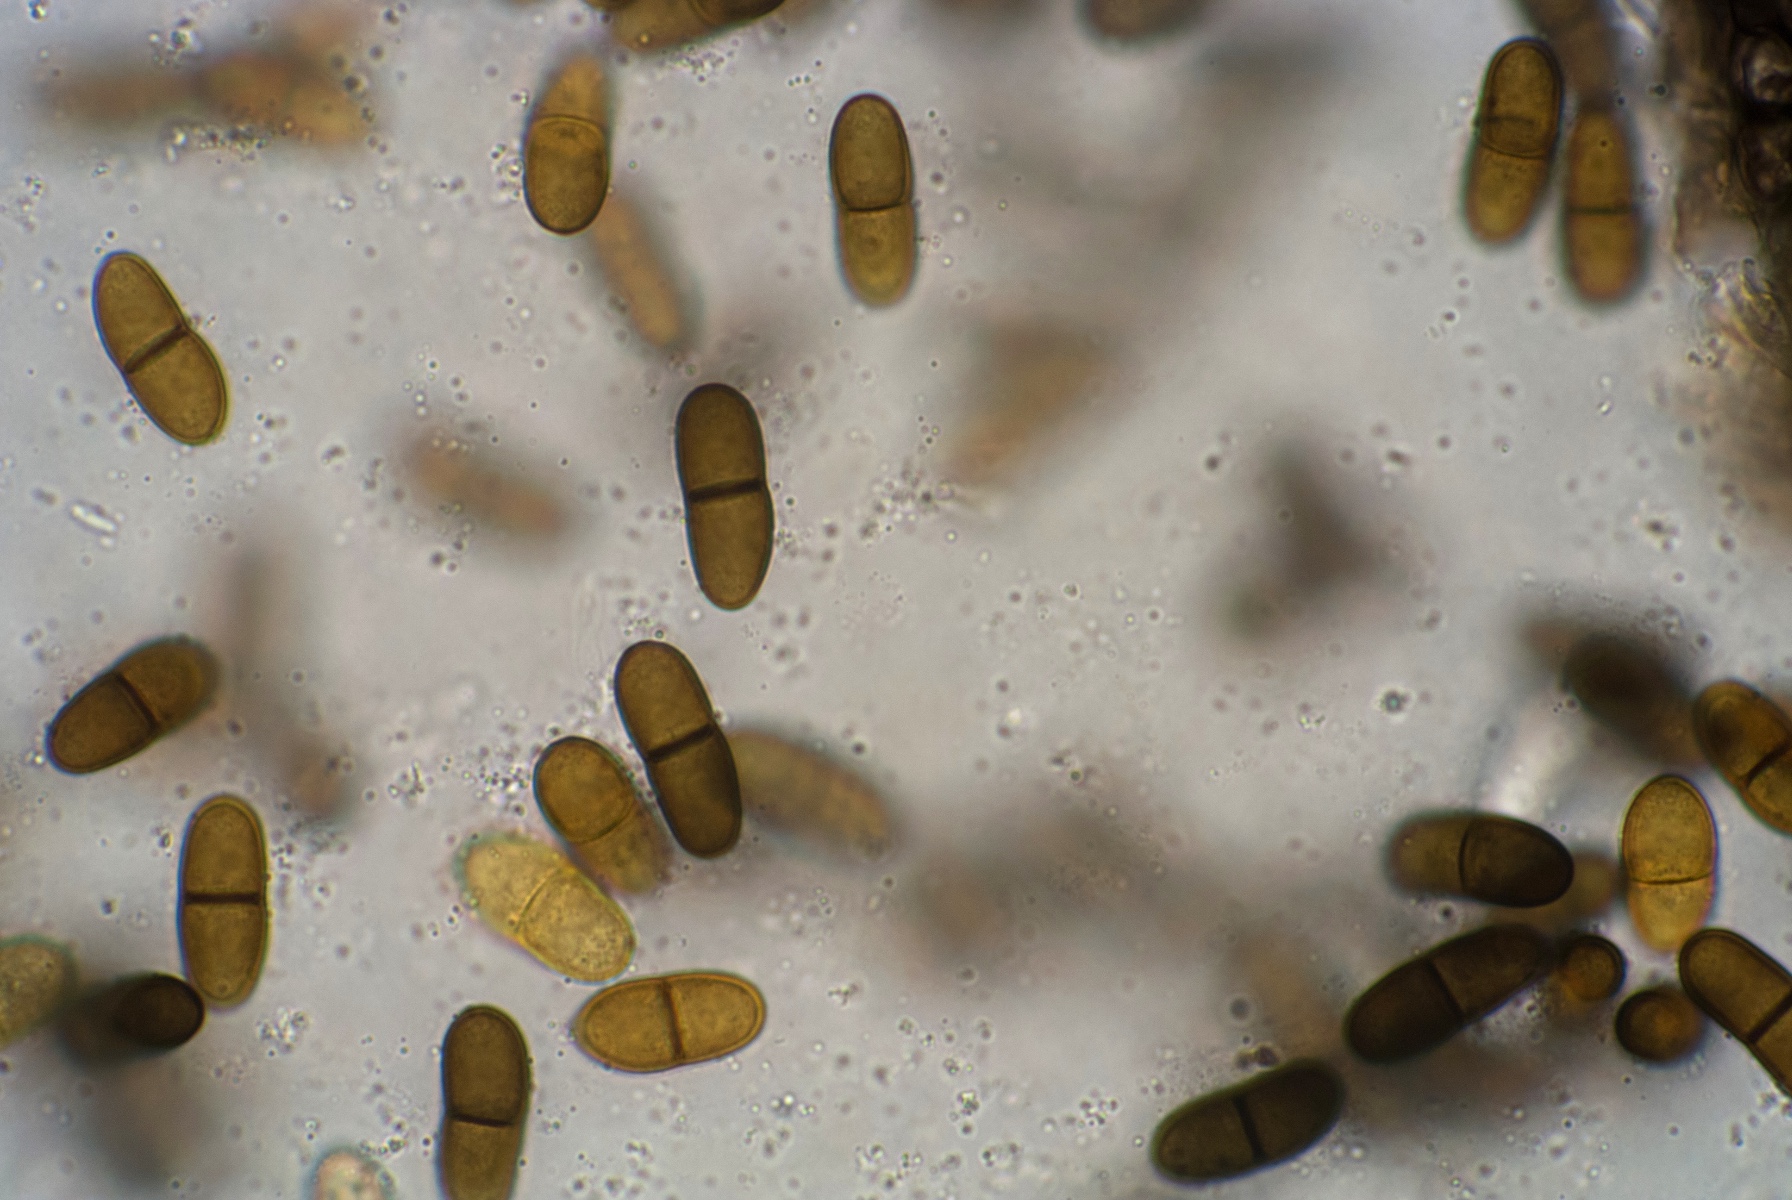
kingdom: Fungi
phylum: Ascomycota
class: Dothideomycetes
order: Botryosphaeriales
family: Botryosphaeriaceae
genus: Diplodia
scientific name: Diplodia rubi
